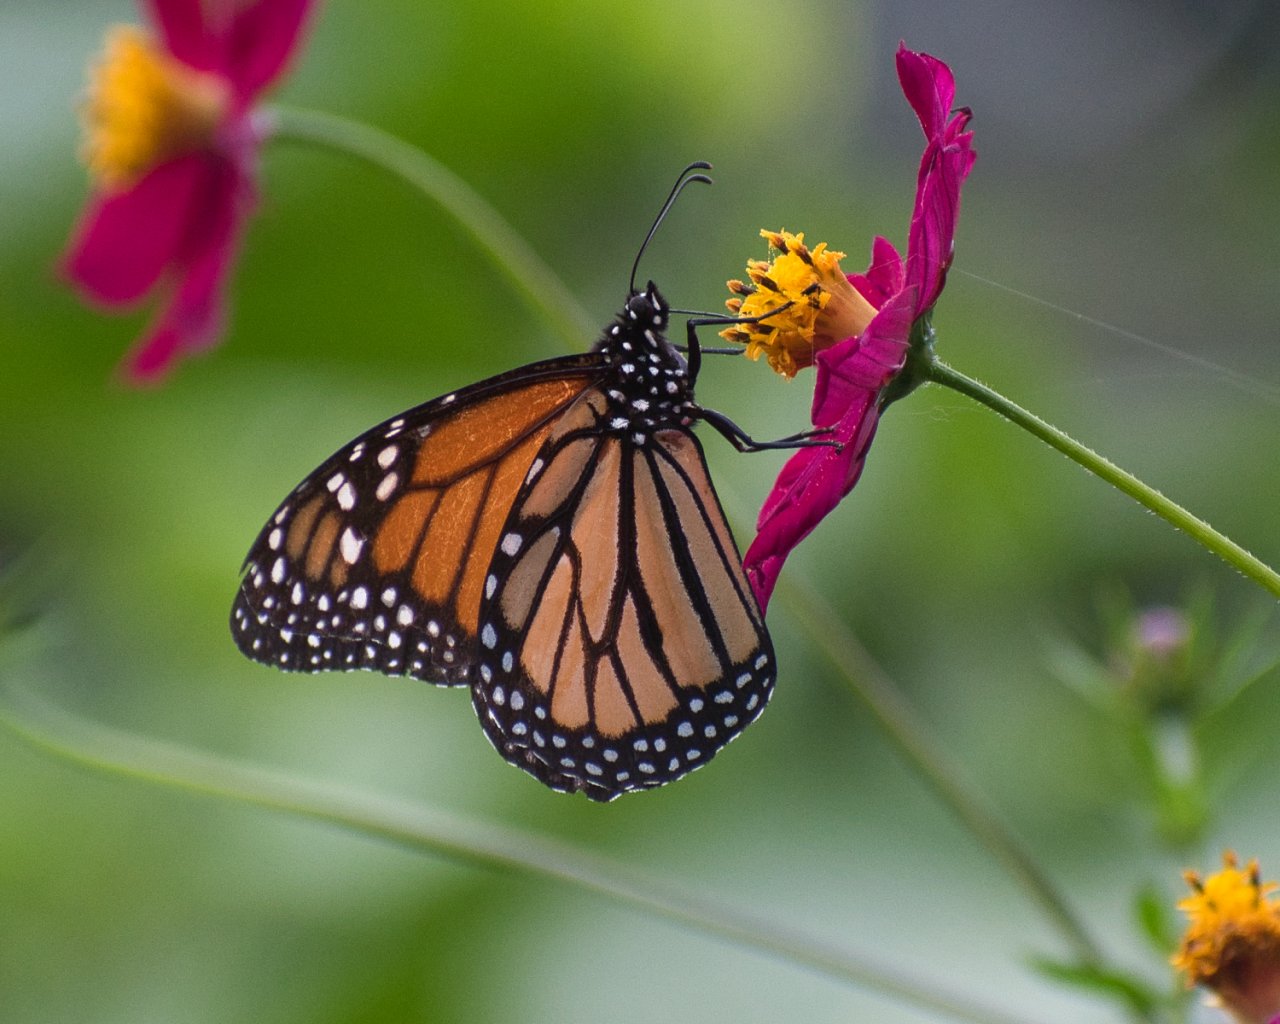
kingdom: Animalia
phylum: Arthropoda
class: Insecta
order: Lepidoptera
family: Nymphalidae
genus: Danaus
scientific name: Danaus plexippus
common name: Monarch
